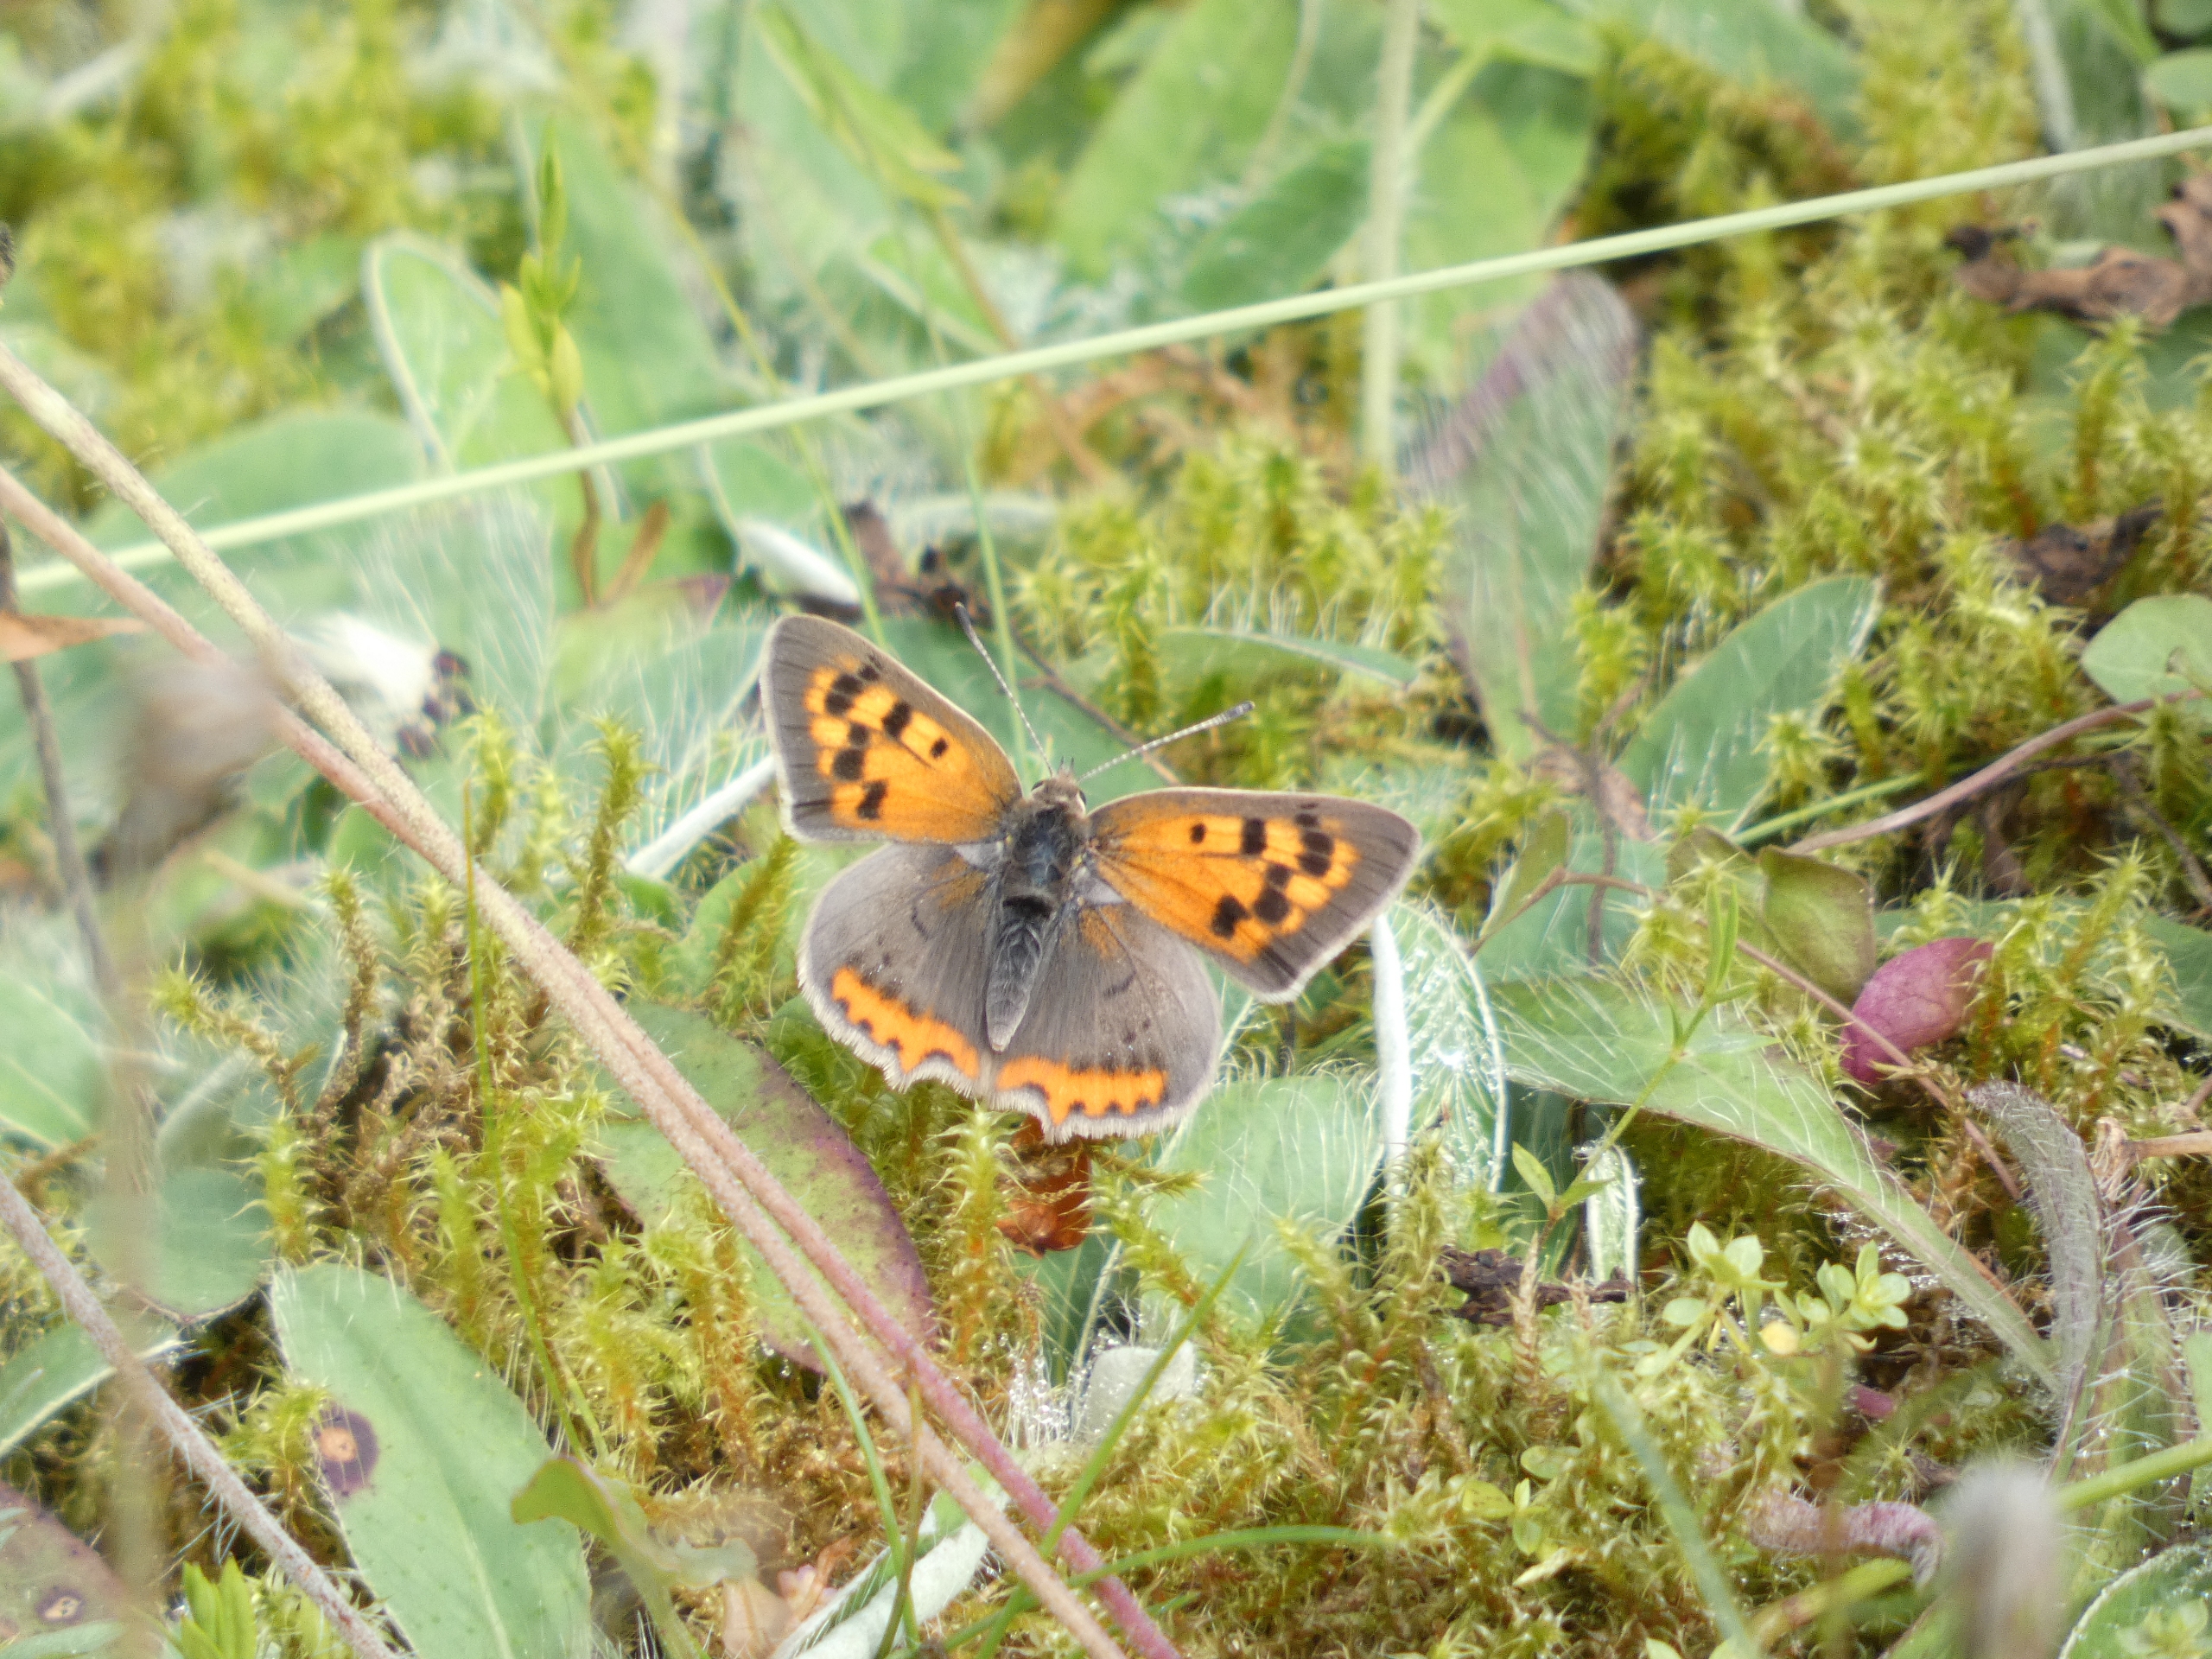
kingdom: Animalia
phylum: Arthropoda
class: Insecta
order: Lepidoptera
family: Lycaenidae
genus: Lycaena
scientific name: Lycaena phlaeas
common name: Lille ildfugl
